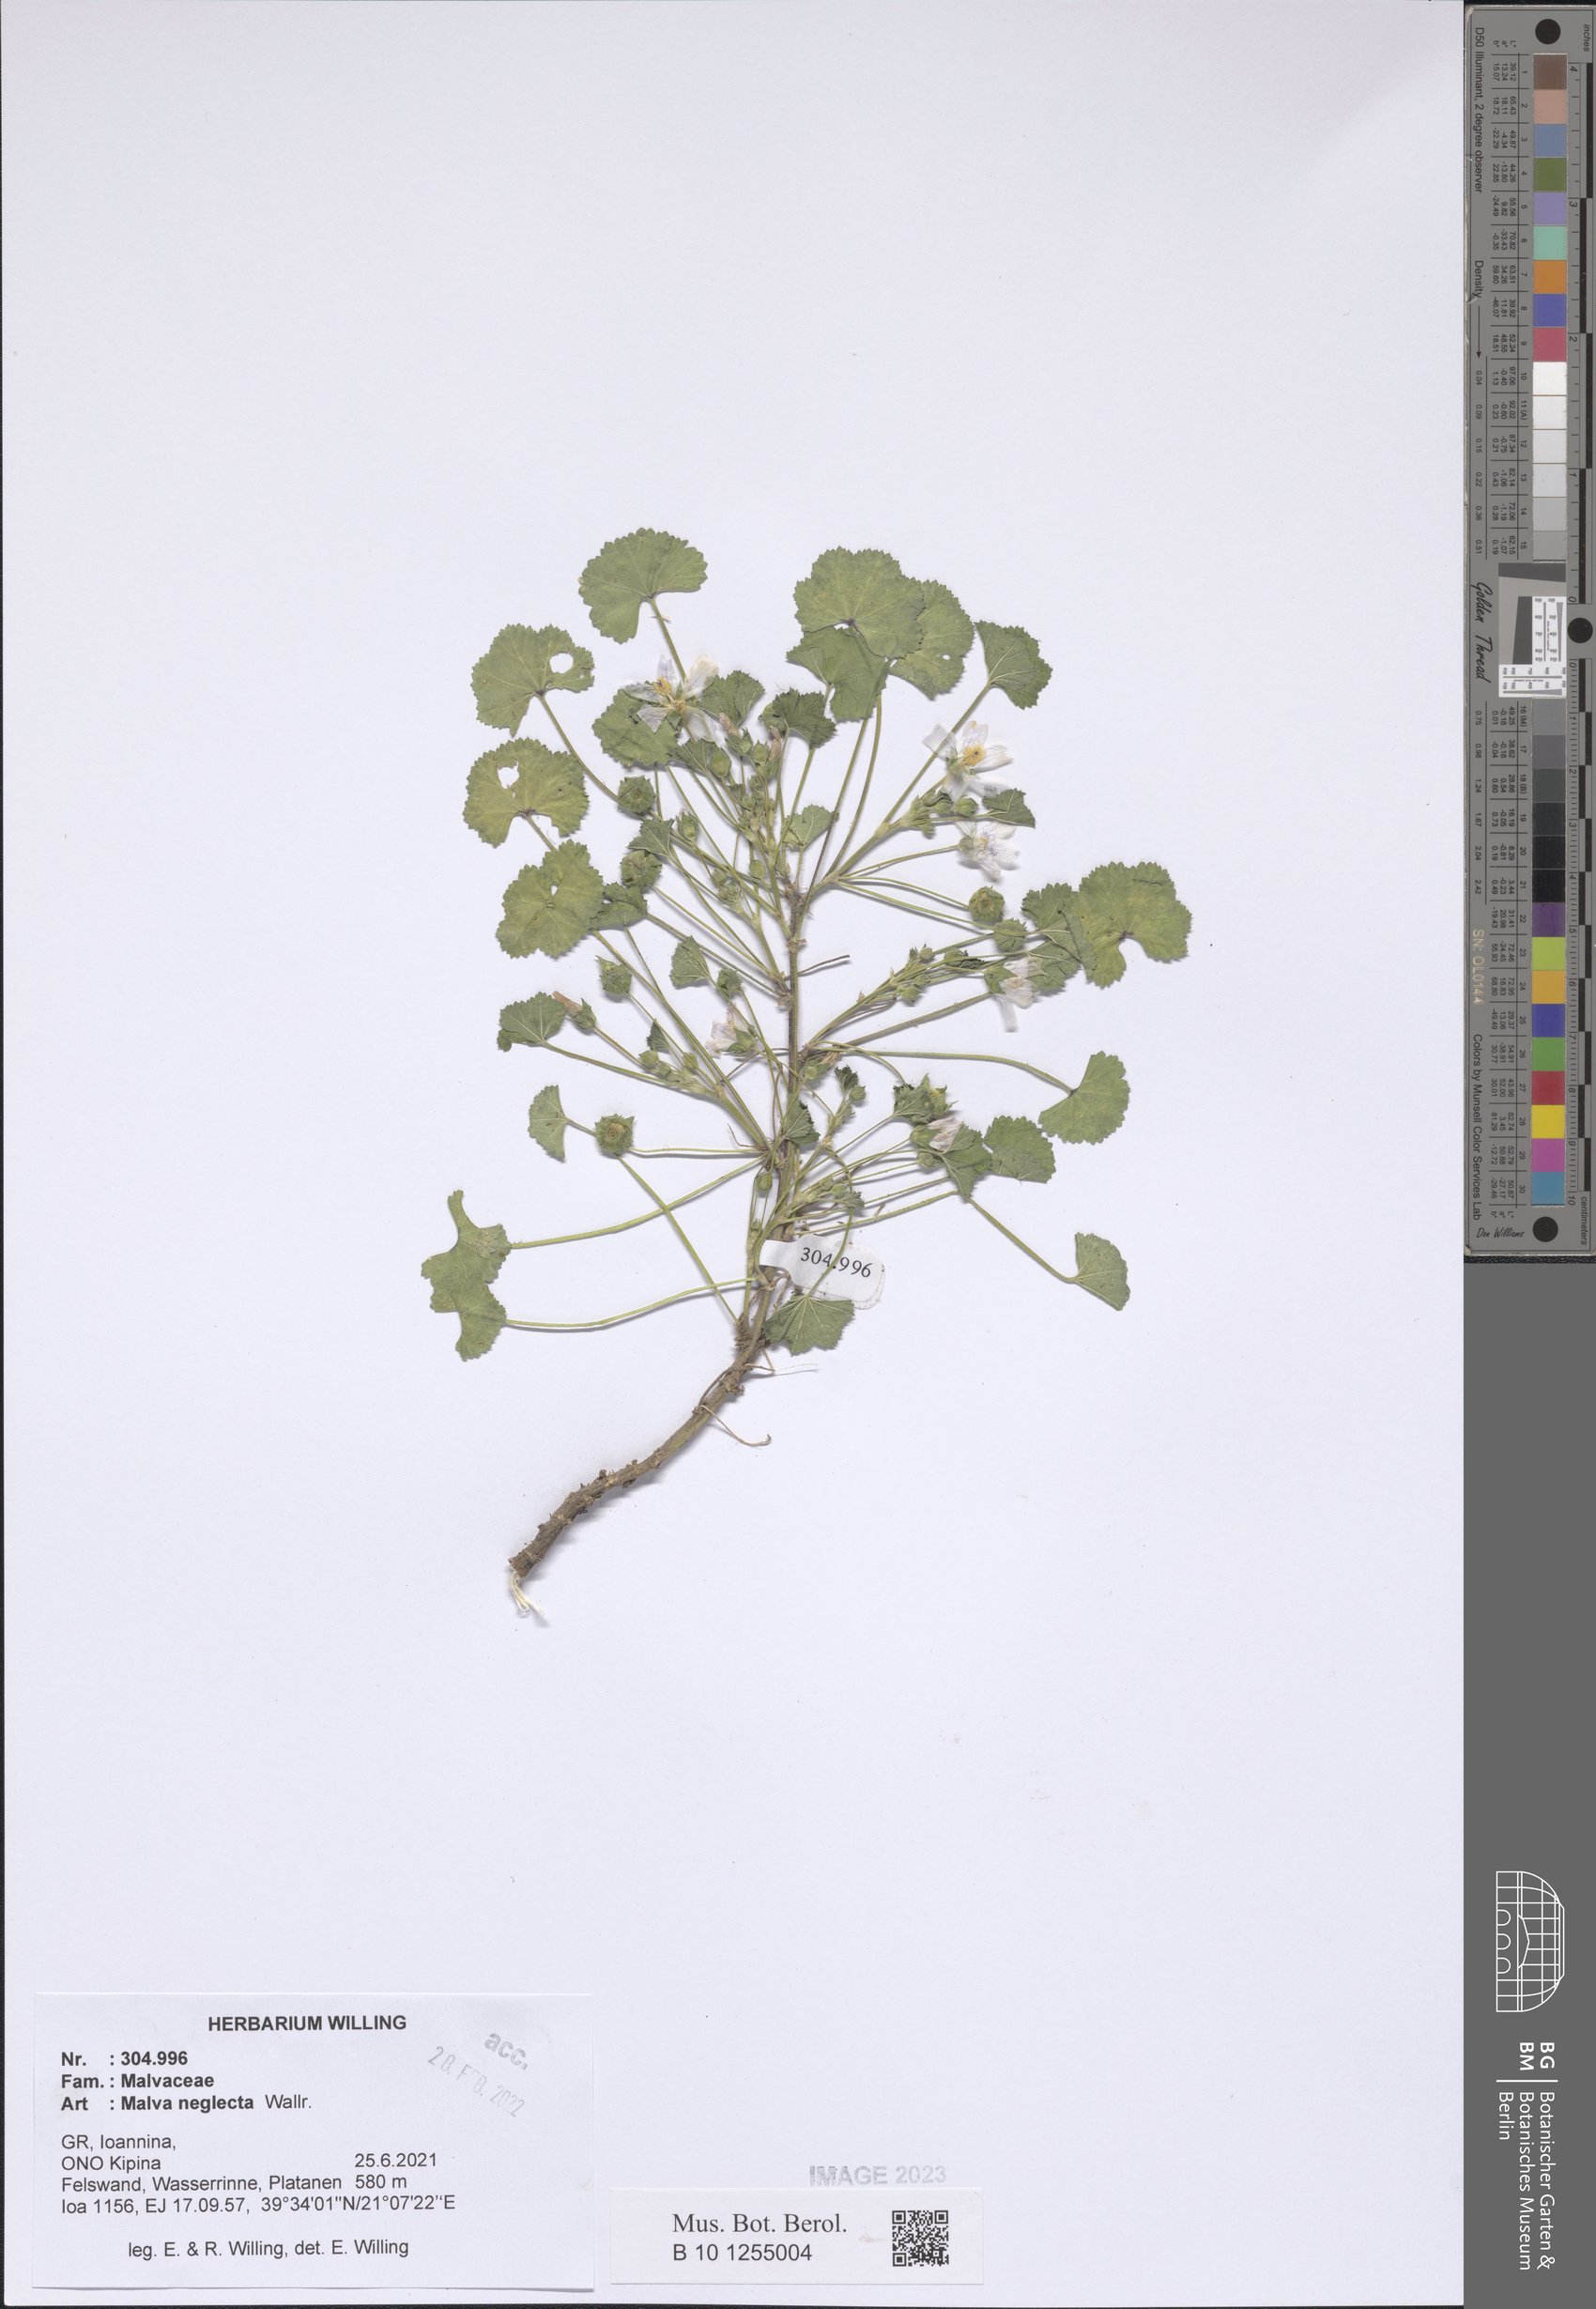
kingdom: Plantae
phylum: Tracheophyta
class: Magnoliopsida
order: Malvales
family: Malvaceae
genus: Malva
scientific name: Malva neglecta
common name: Common mallow
